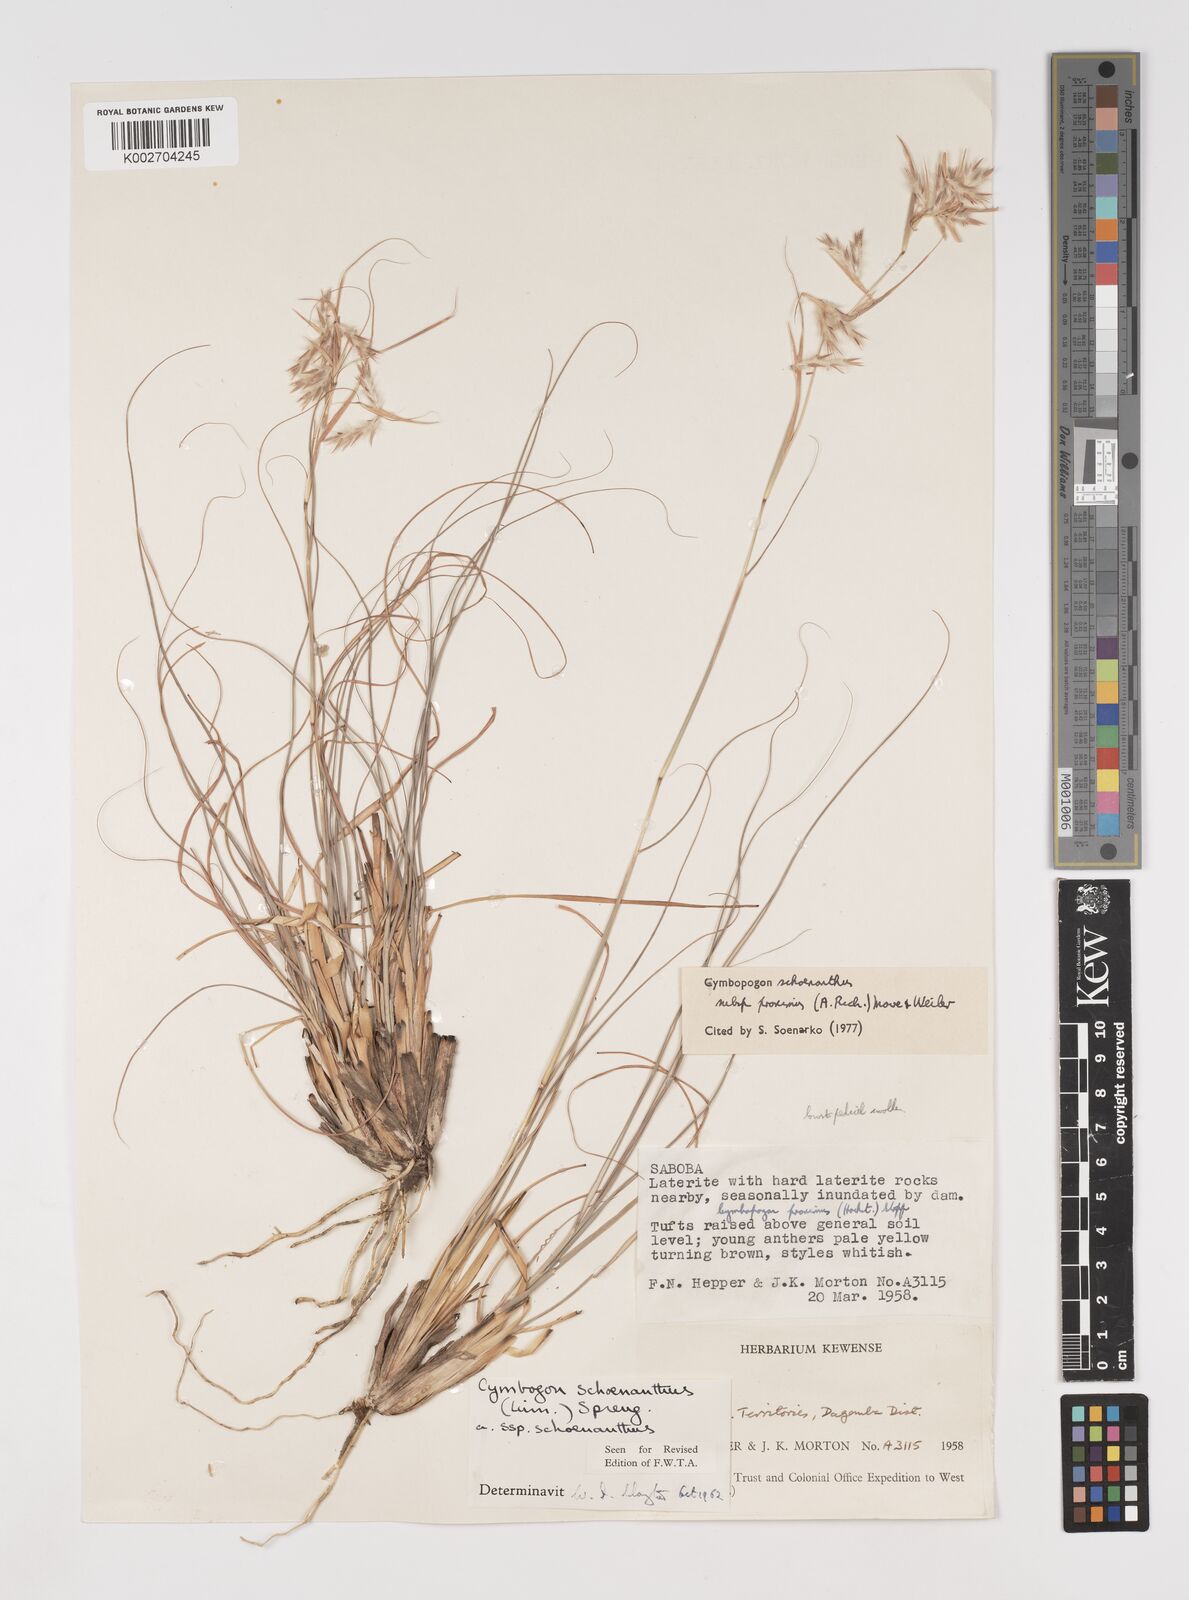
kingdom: Plantae
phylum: Tracheophyta
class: Liliopsida
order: Poales
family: Poaceae
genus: Cymbopogon
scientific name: Cymbopogon schoenanthus
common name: Geranium grass
